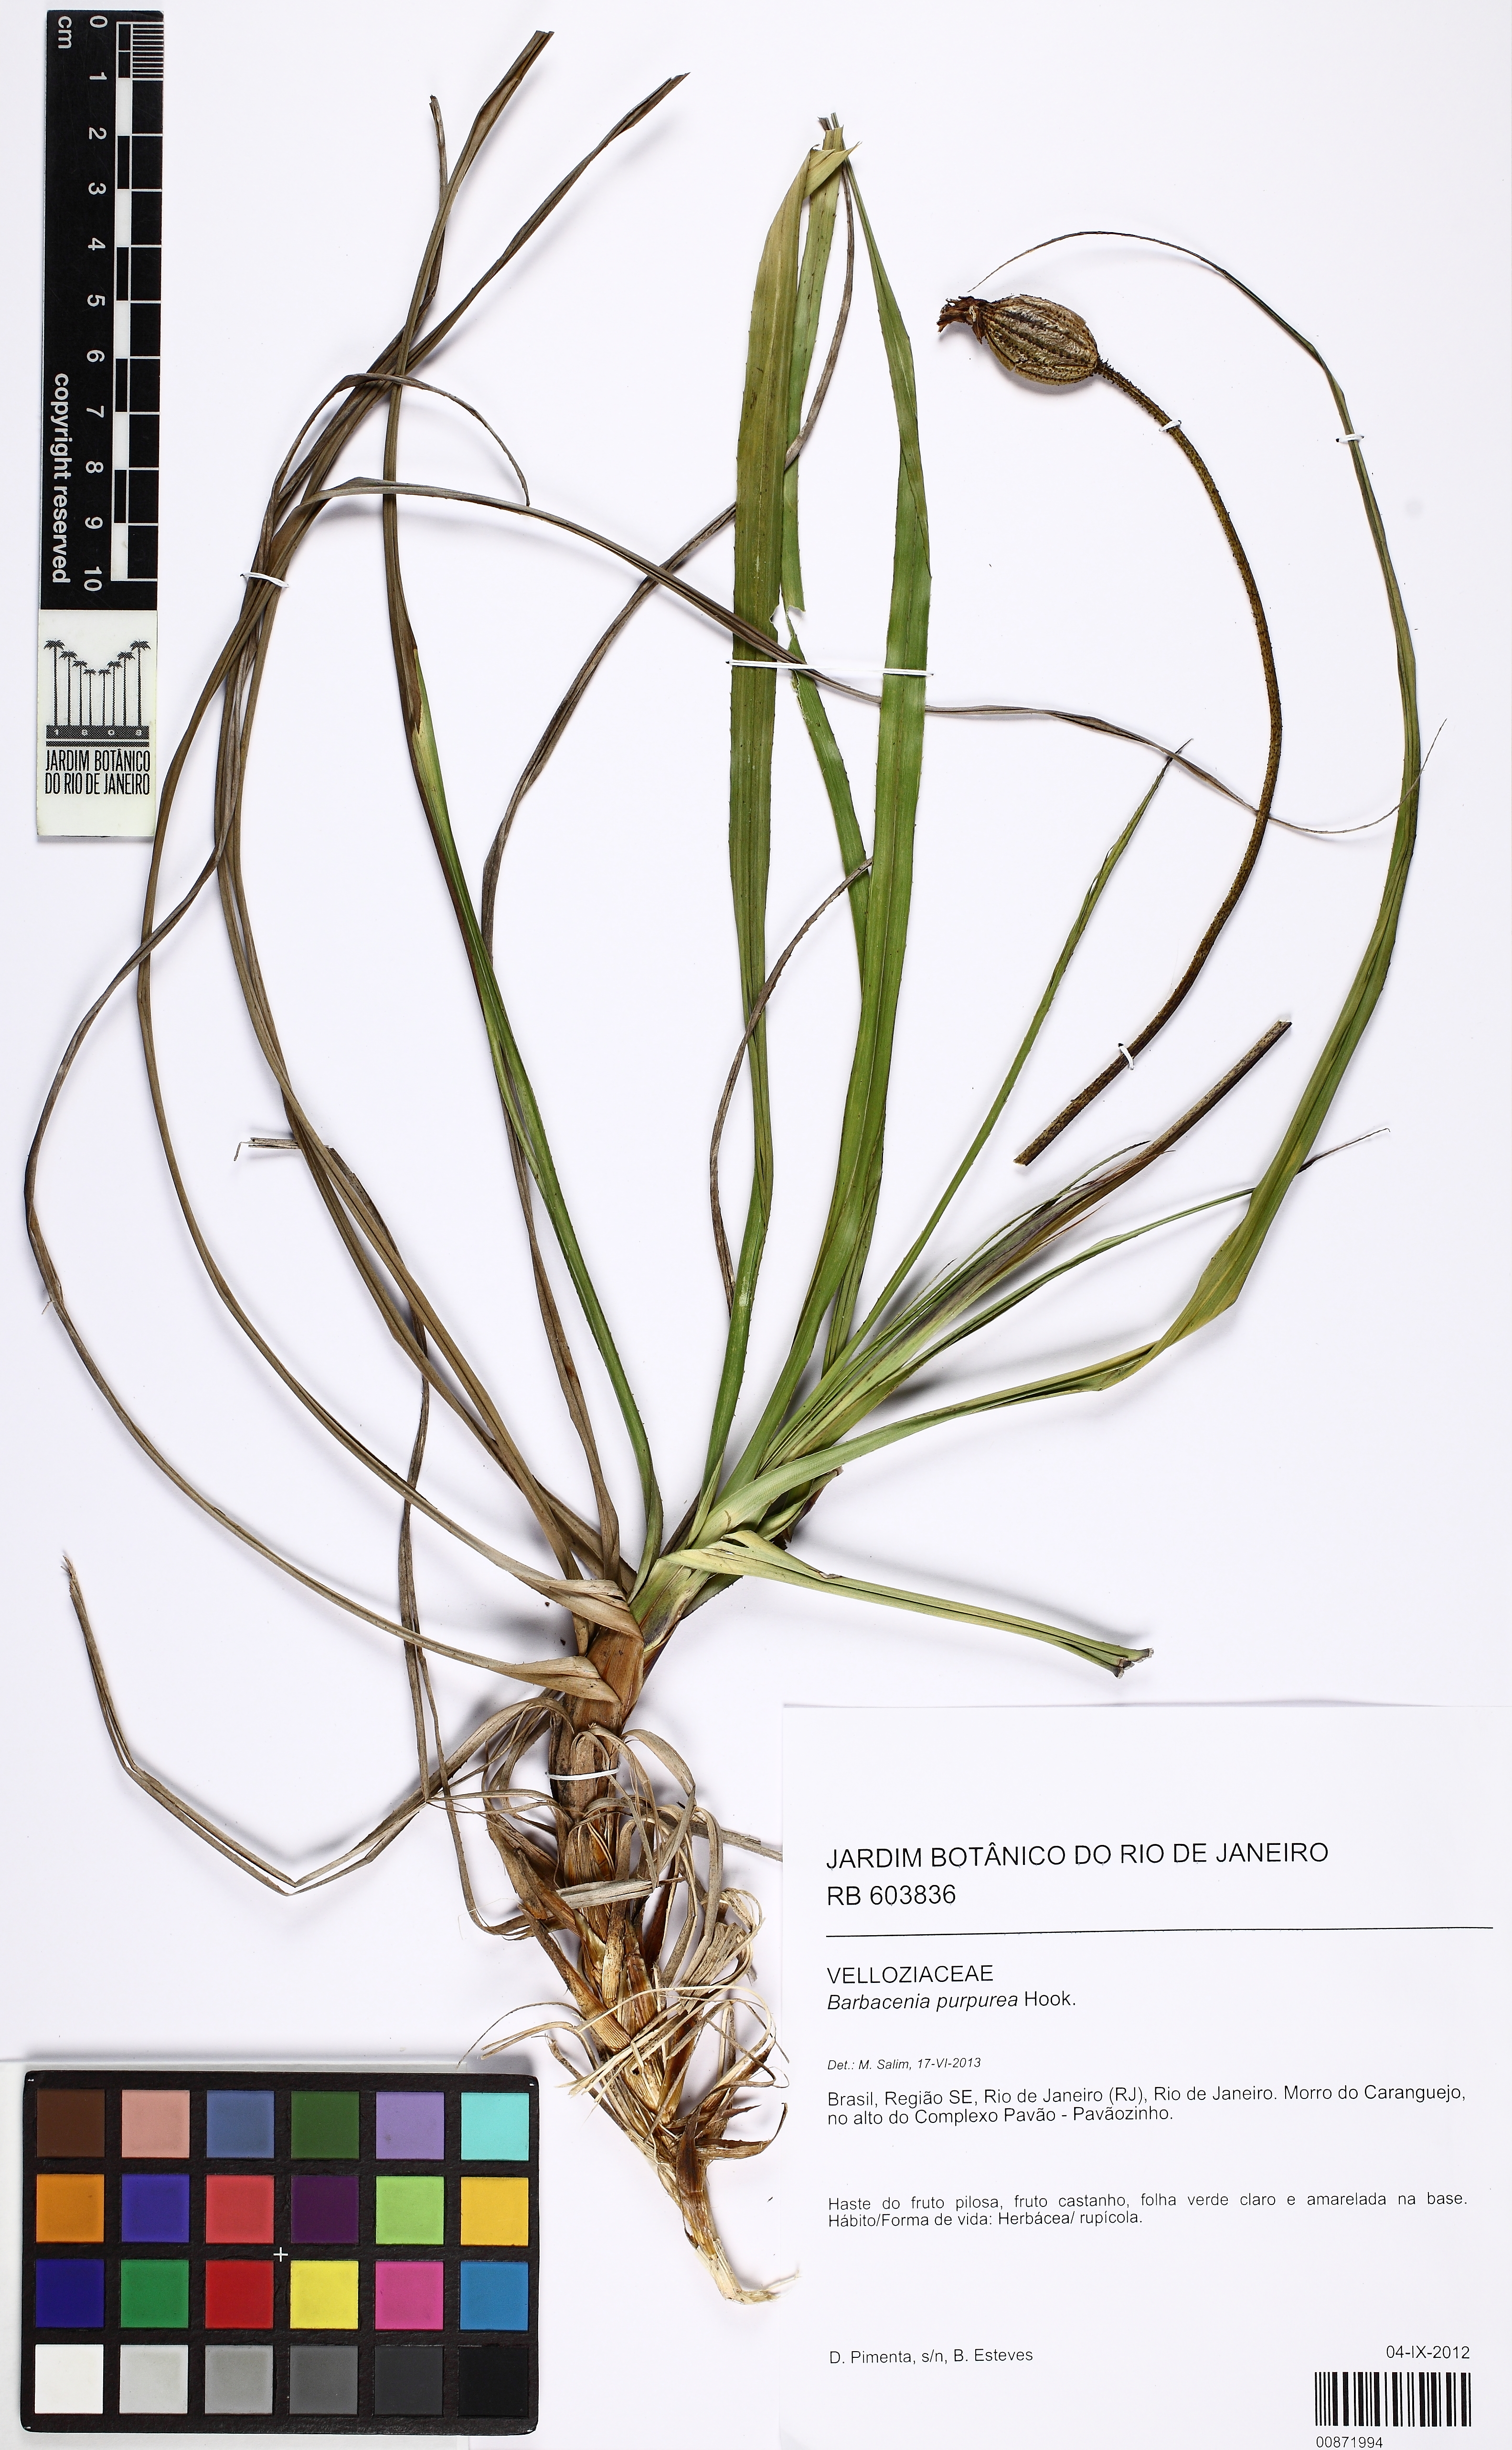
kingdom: Plantae
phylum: Tracheophyta
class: Liliopsida
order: Pandanales
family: Velloziaceae
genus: Barbacenia
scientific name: Barbacenia purpurea
